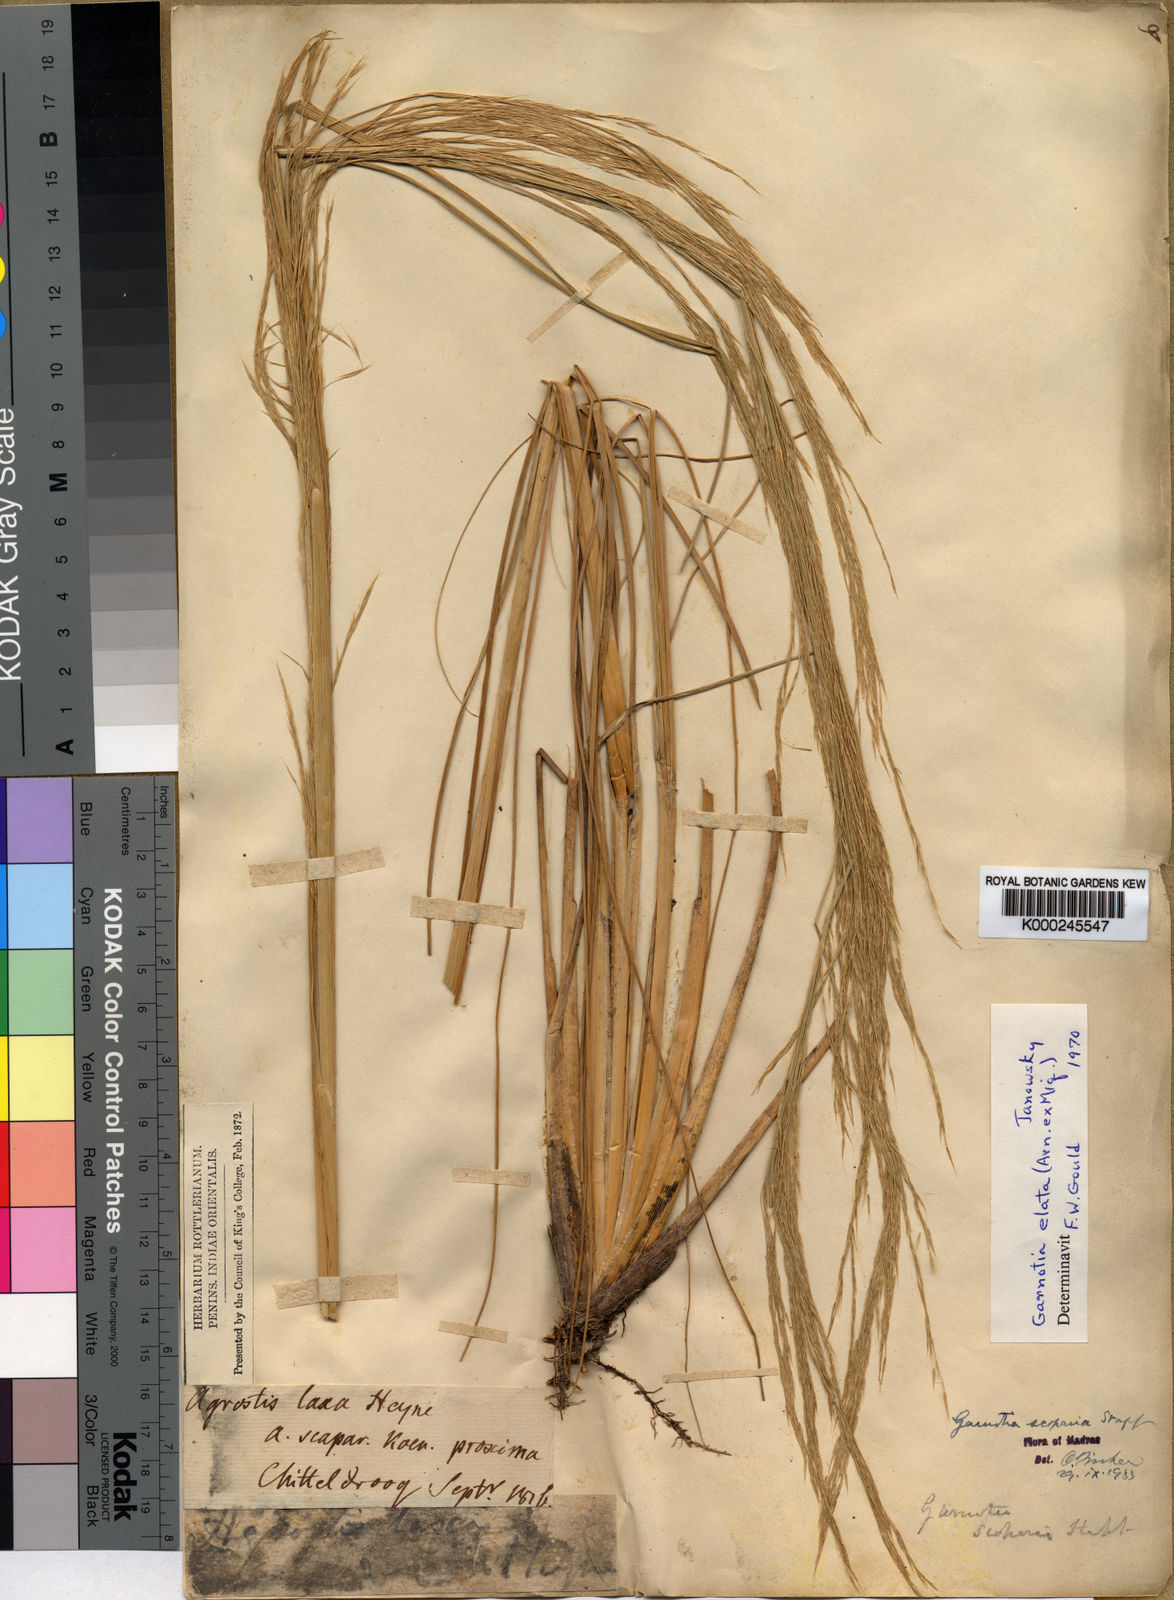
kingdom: Plantae
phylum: Tracheophyta
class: Liliopsida
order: Poales
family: Poaceae
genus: Garnotia
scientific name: Garnotia elata
